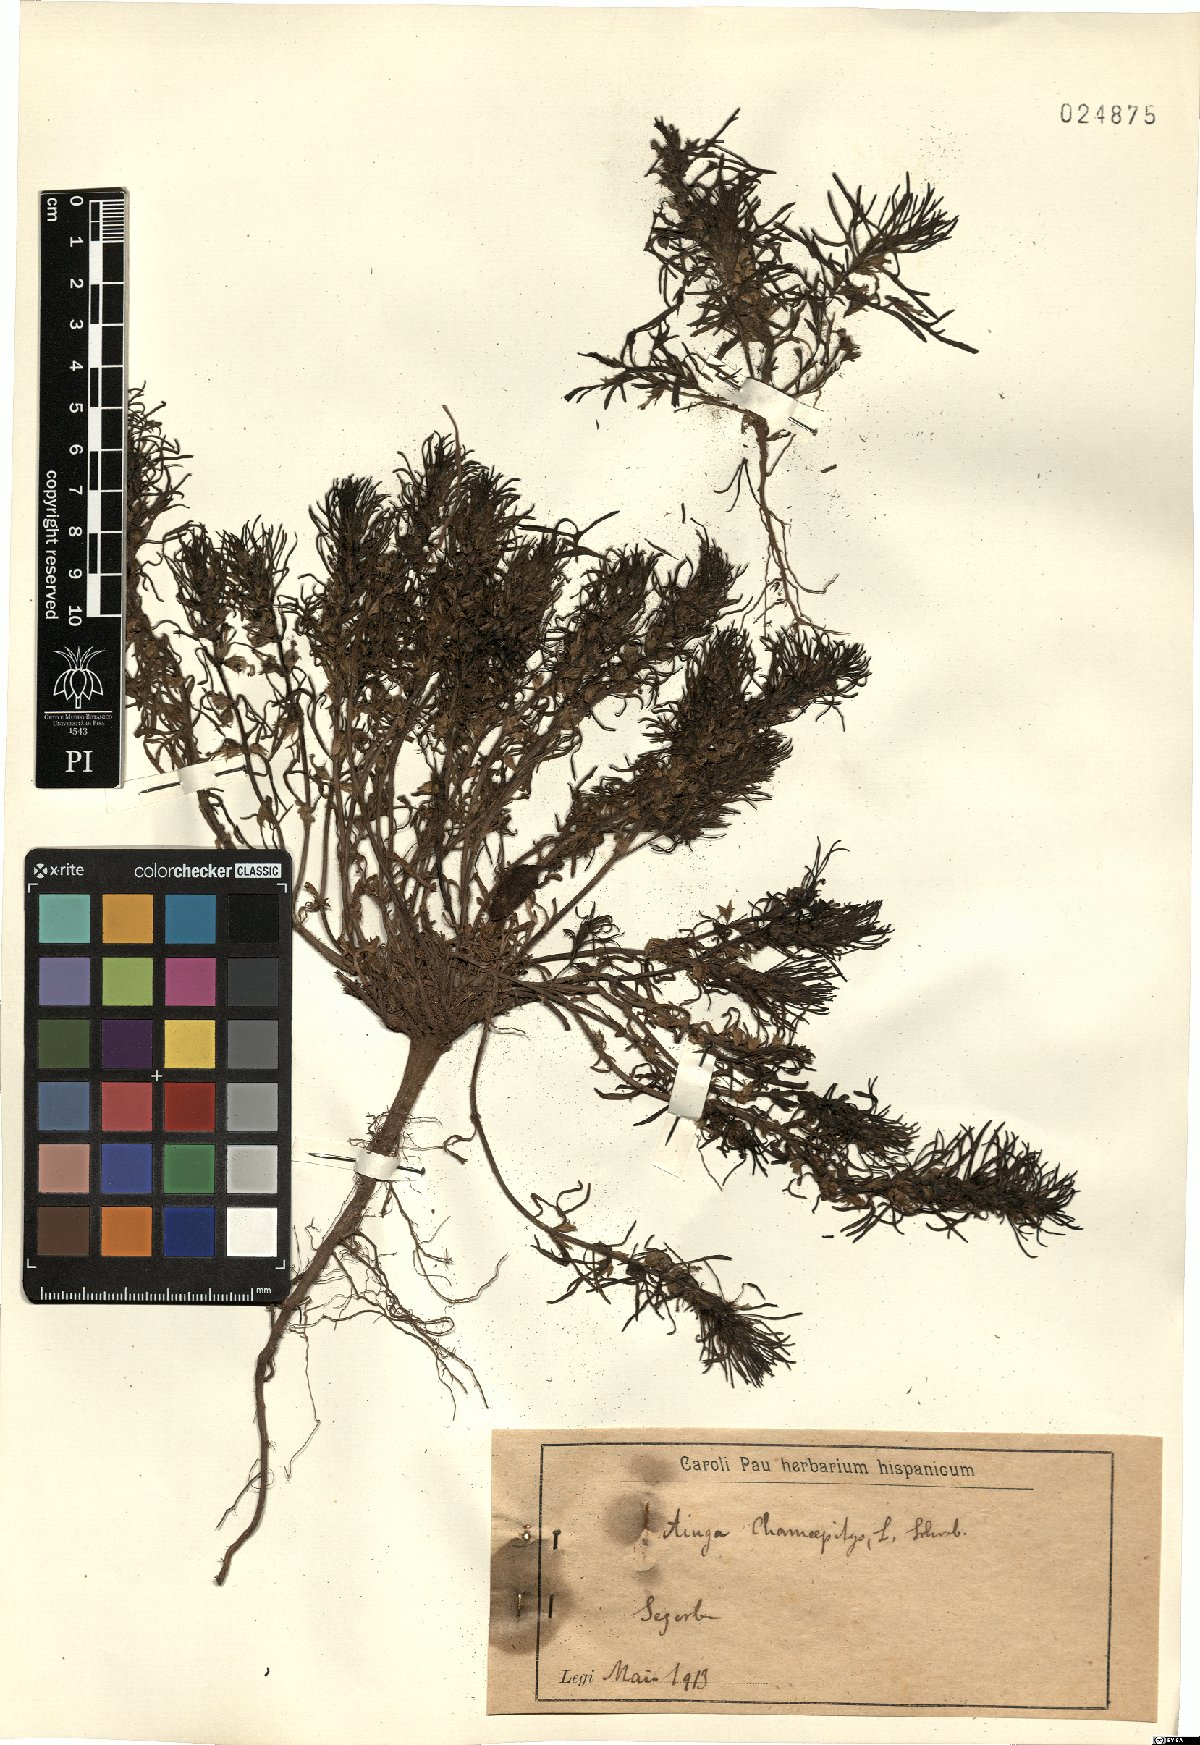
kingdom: Plantae
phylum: Tracheophyta
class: Magnoliopsida
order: Lamiales
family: Lamiaceae
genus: Ajuga
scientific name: Ajuga chamaepitys
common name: Ground-pine
